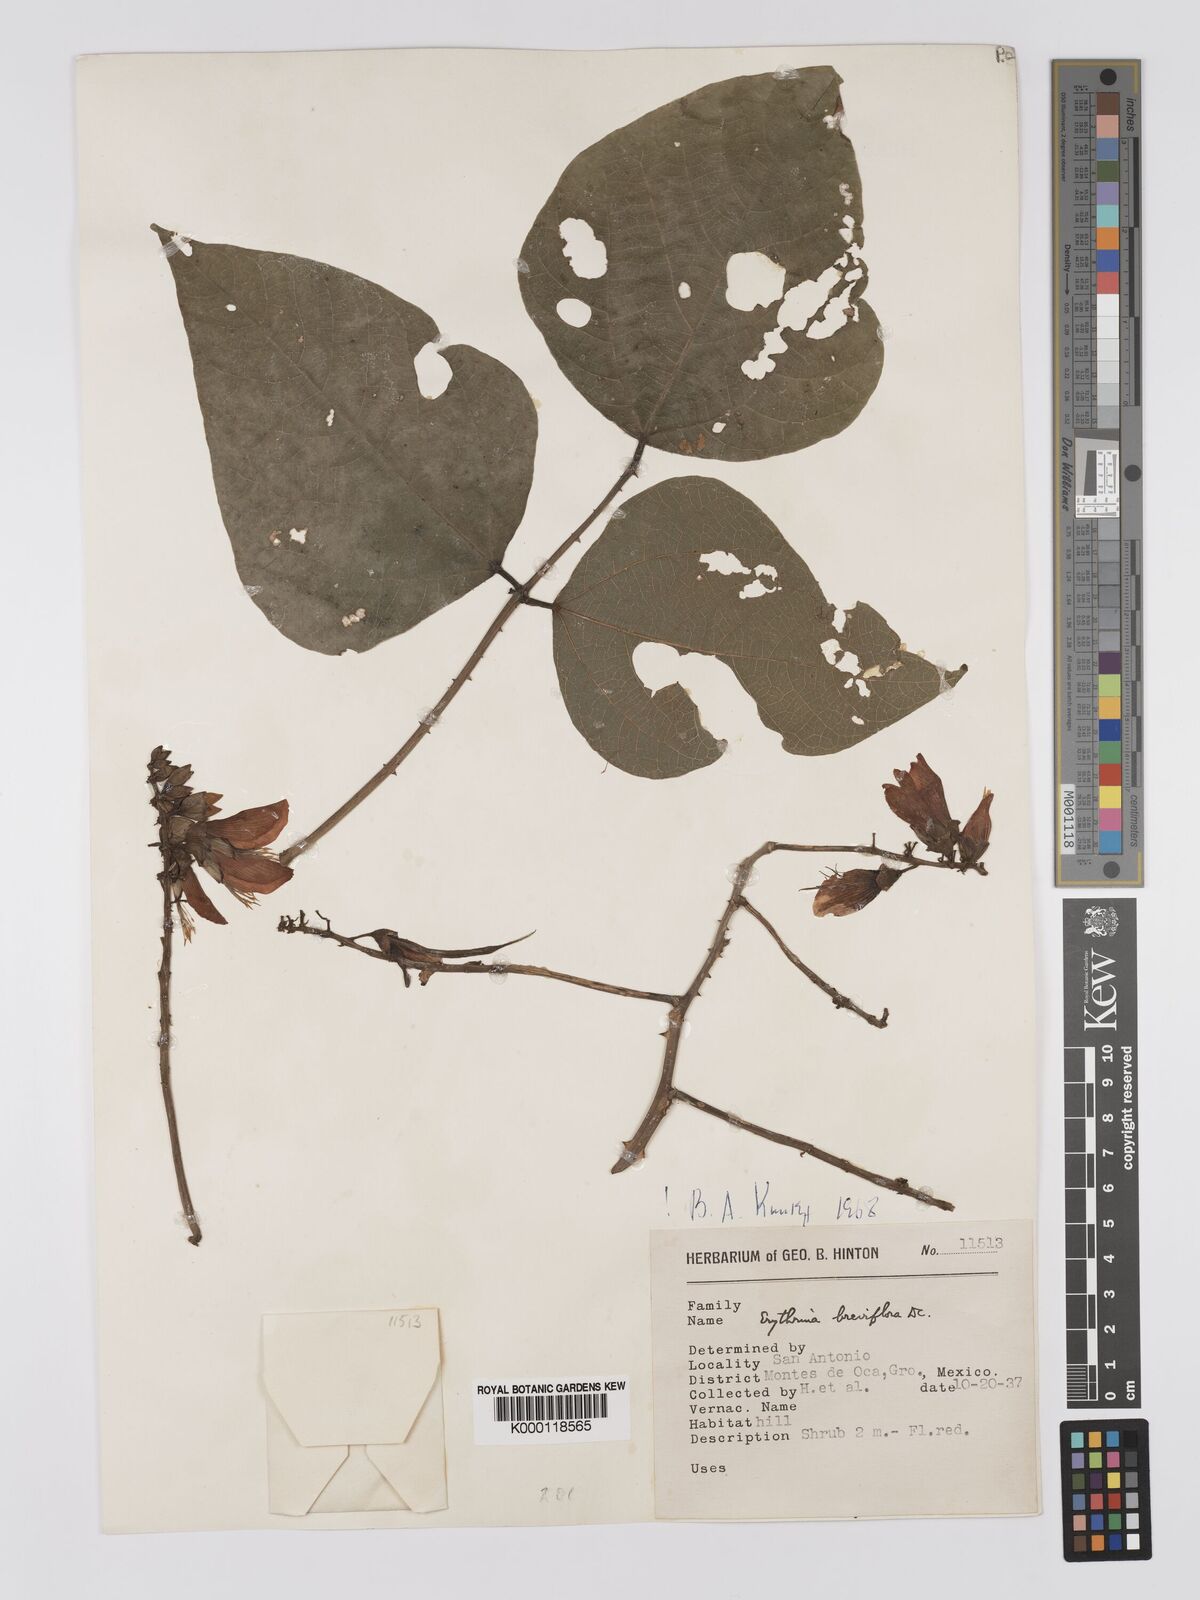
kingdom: Plantae
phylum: Tracheophyta
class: Magnoliopsida
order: Fabales
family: Fabaceae
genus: Erythrina
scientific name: Erythrina breviflora
